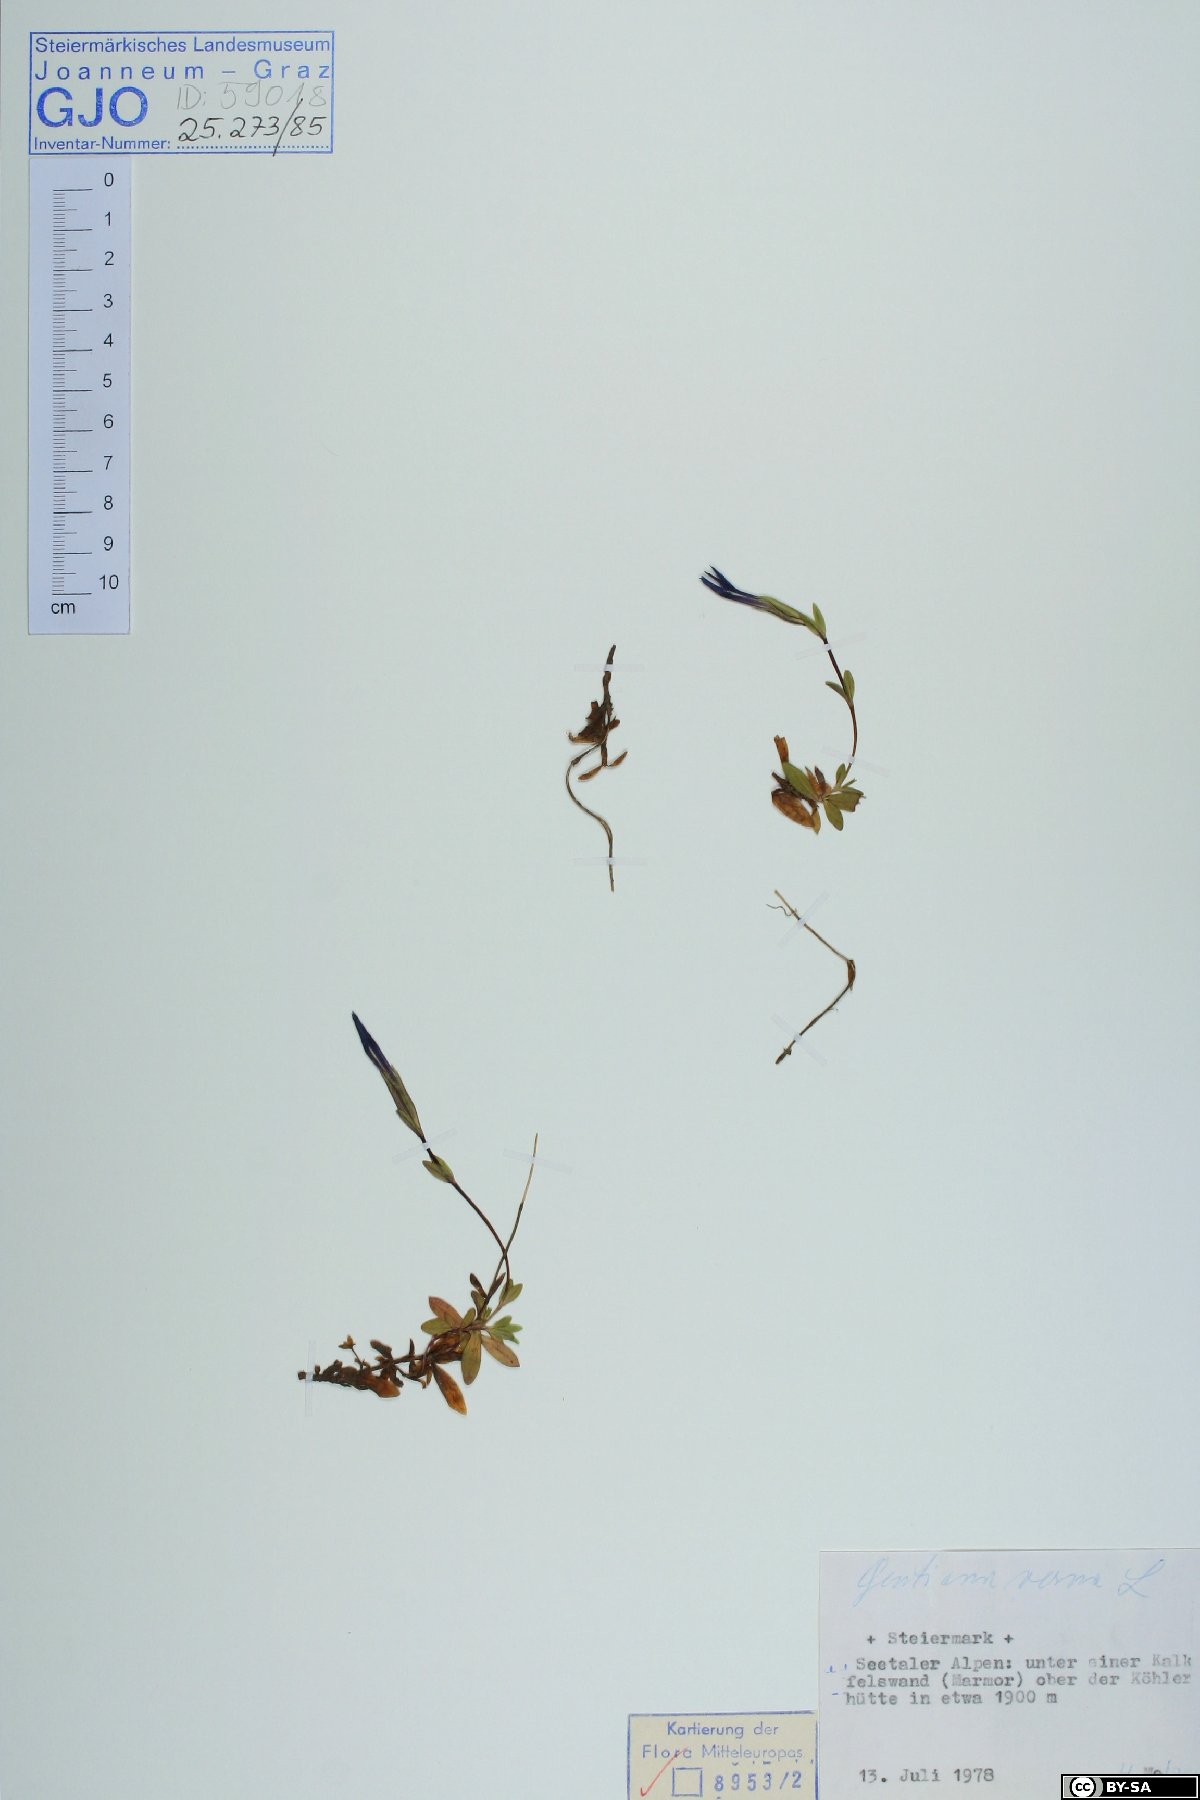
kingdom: Plantae
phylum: Tracheophyta
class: Magnoliopsida
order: Gentianales
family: Gentianaceae
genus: Gentiana
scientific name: Gentiana verna
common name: Spring gentian
